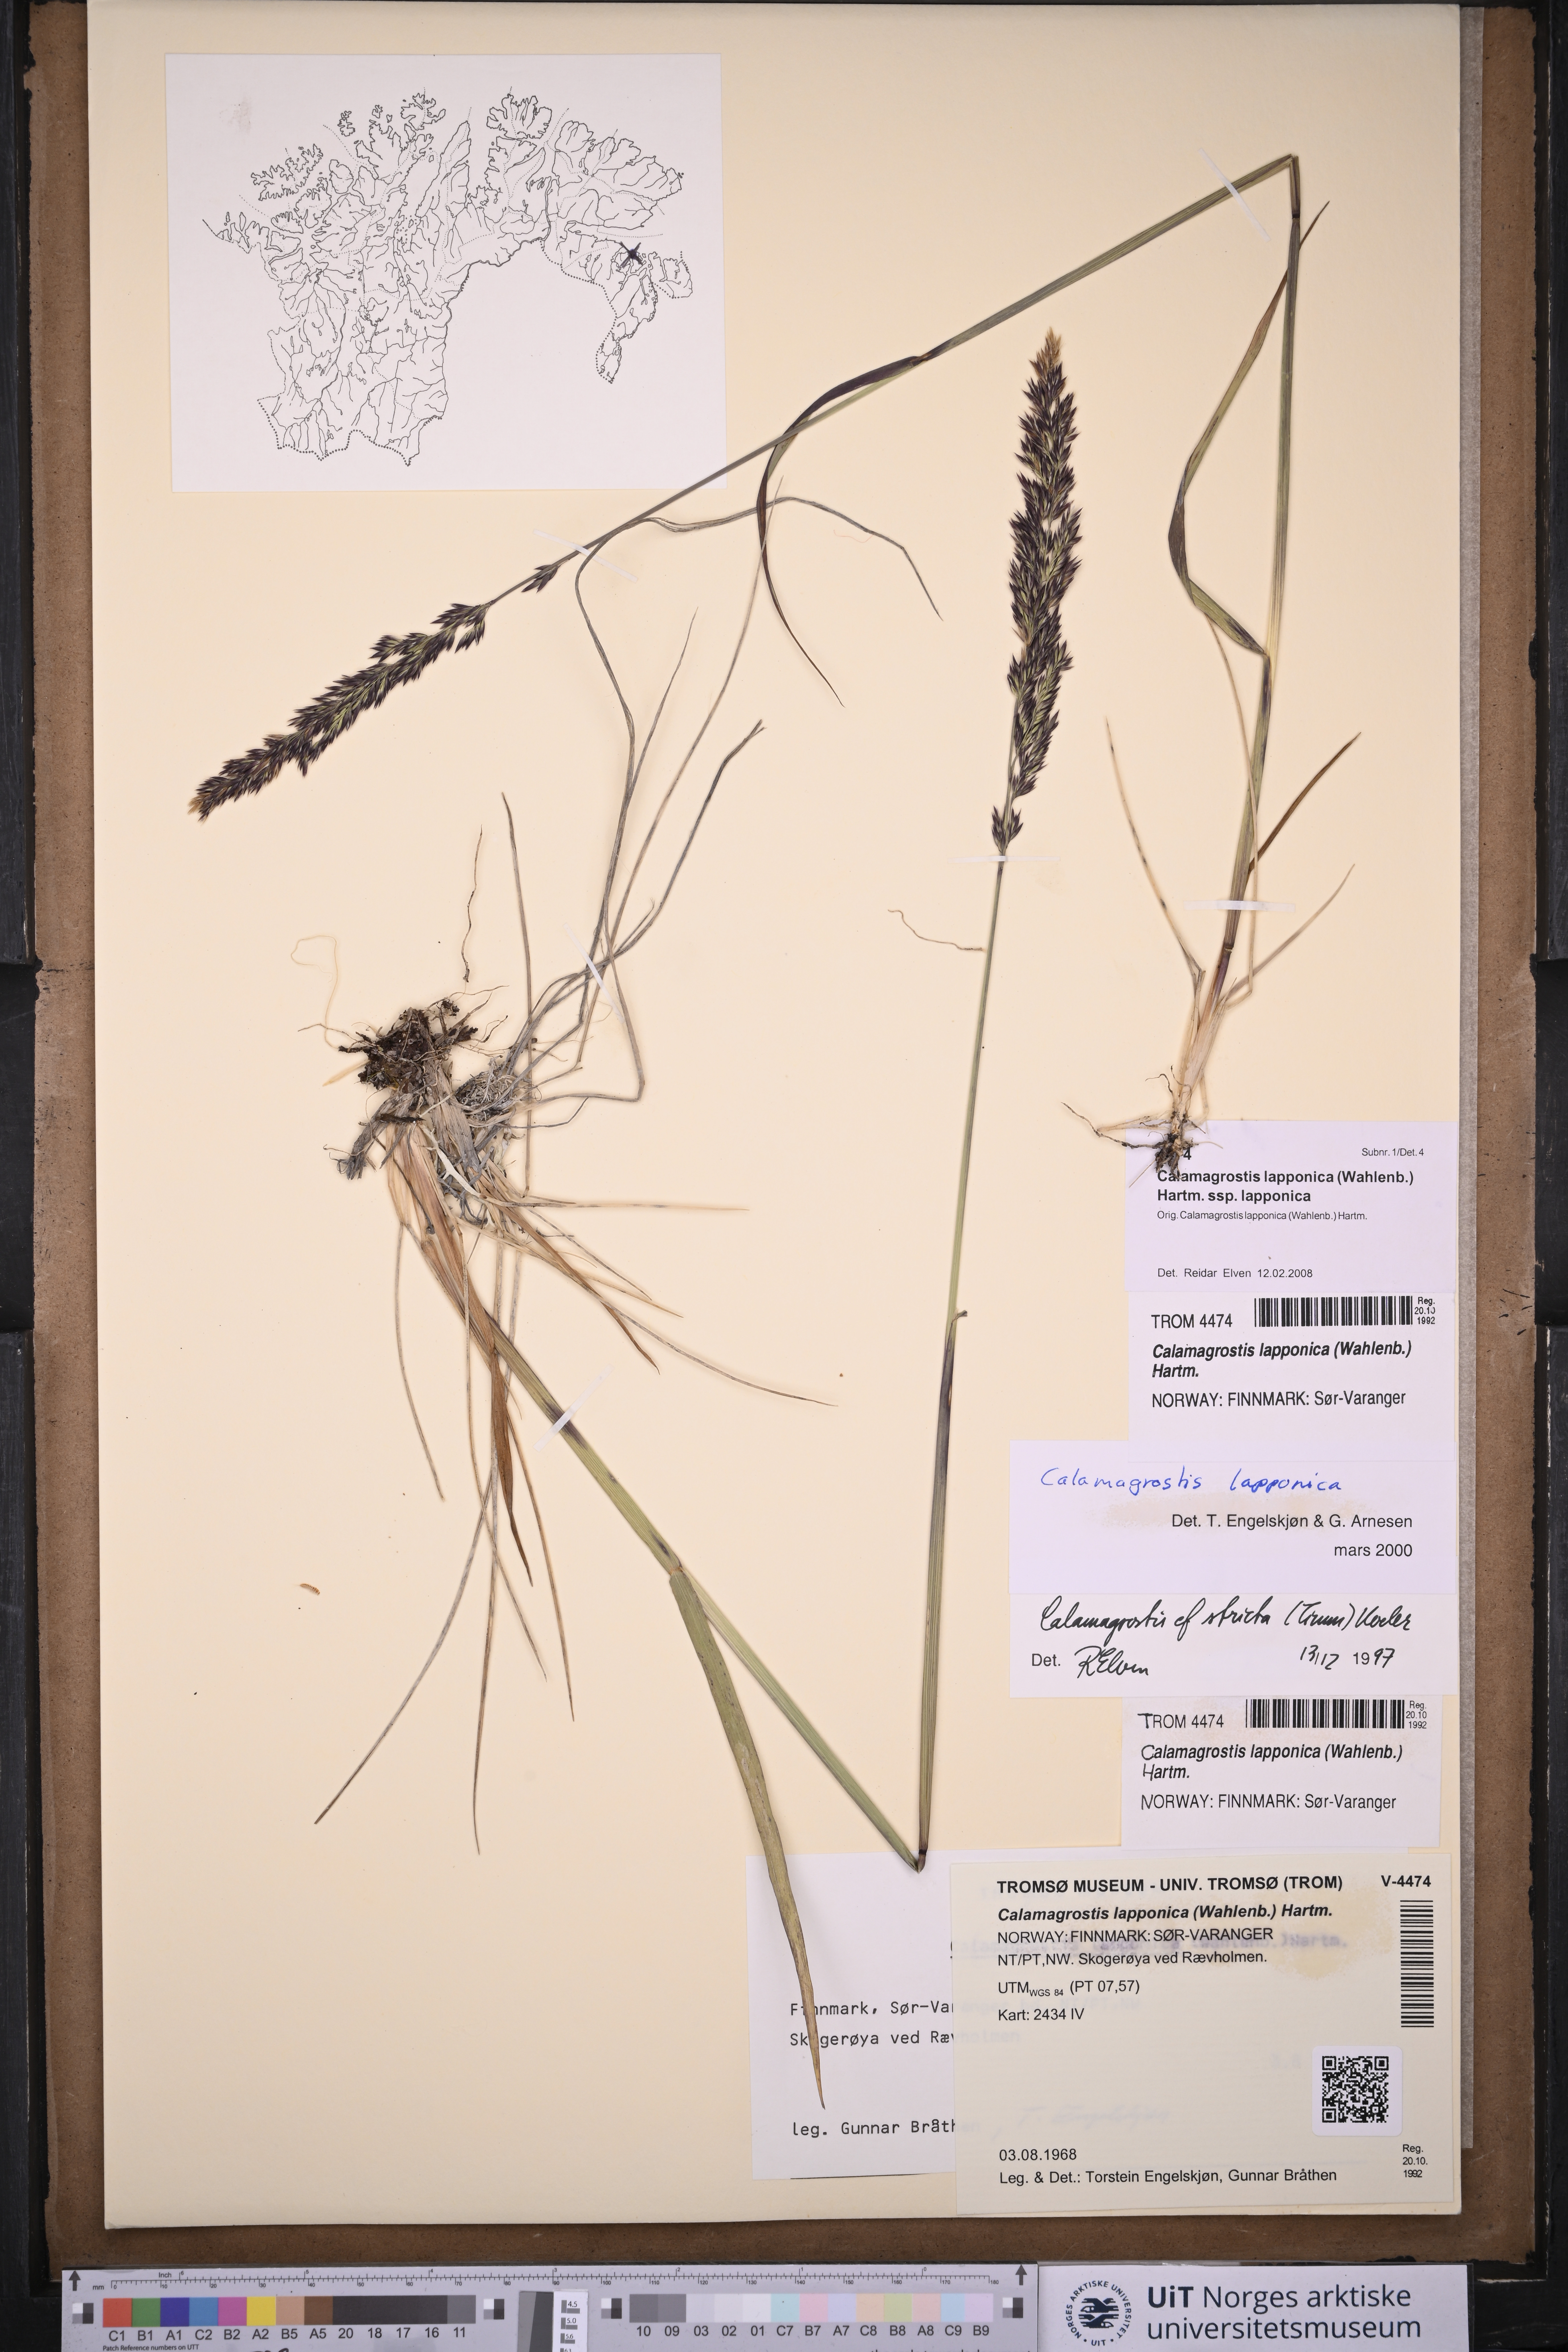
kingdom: Plantae
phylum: Tracheophyta
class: Liliopsida
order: Poales
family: Poaceae
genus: Calamagrostis
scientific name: Calamagrostis lapponica
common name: Lapland reedgrass
